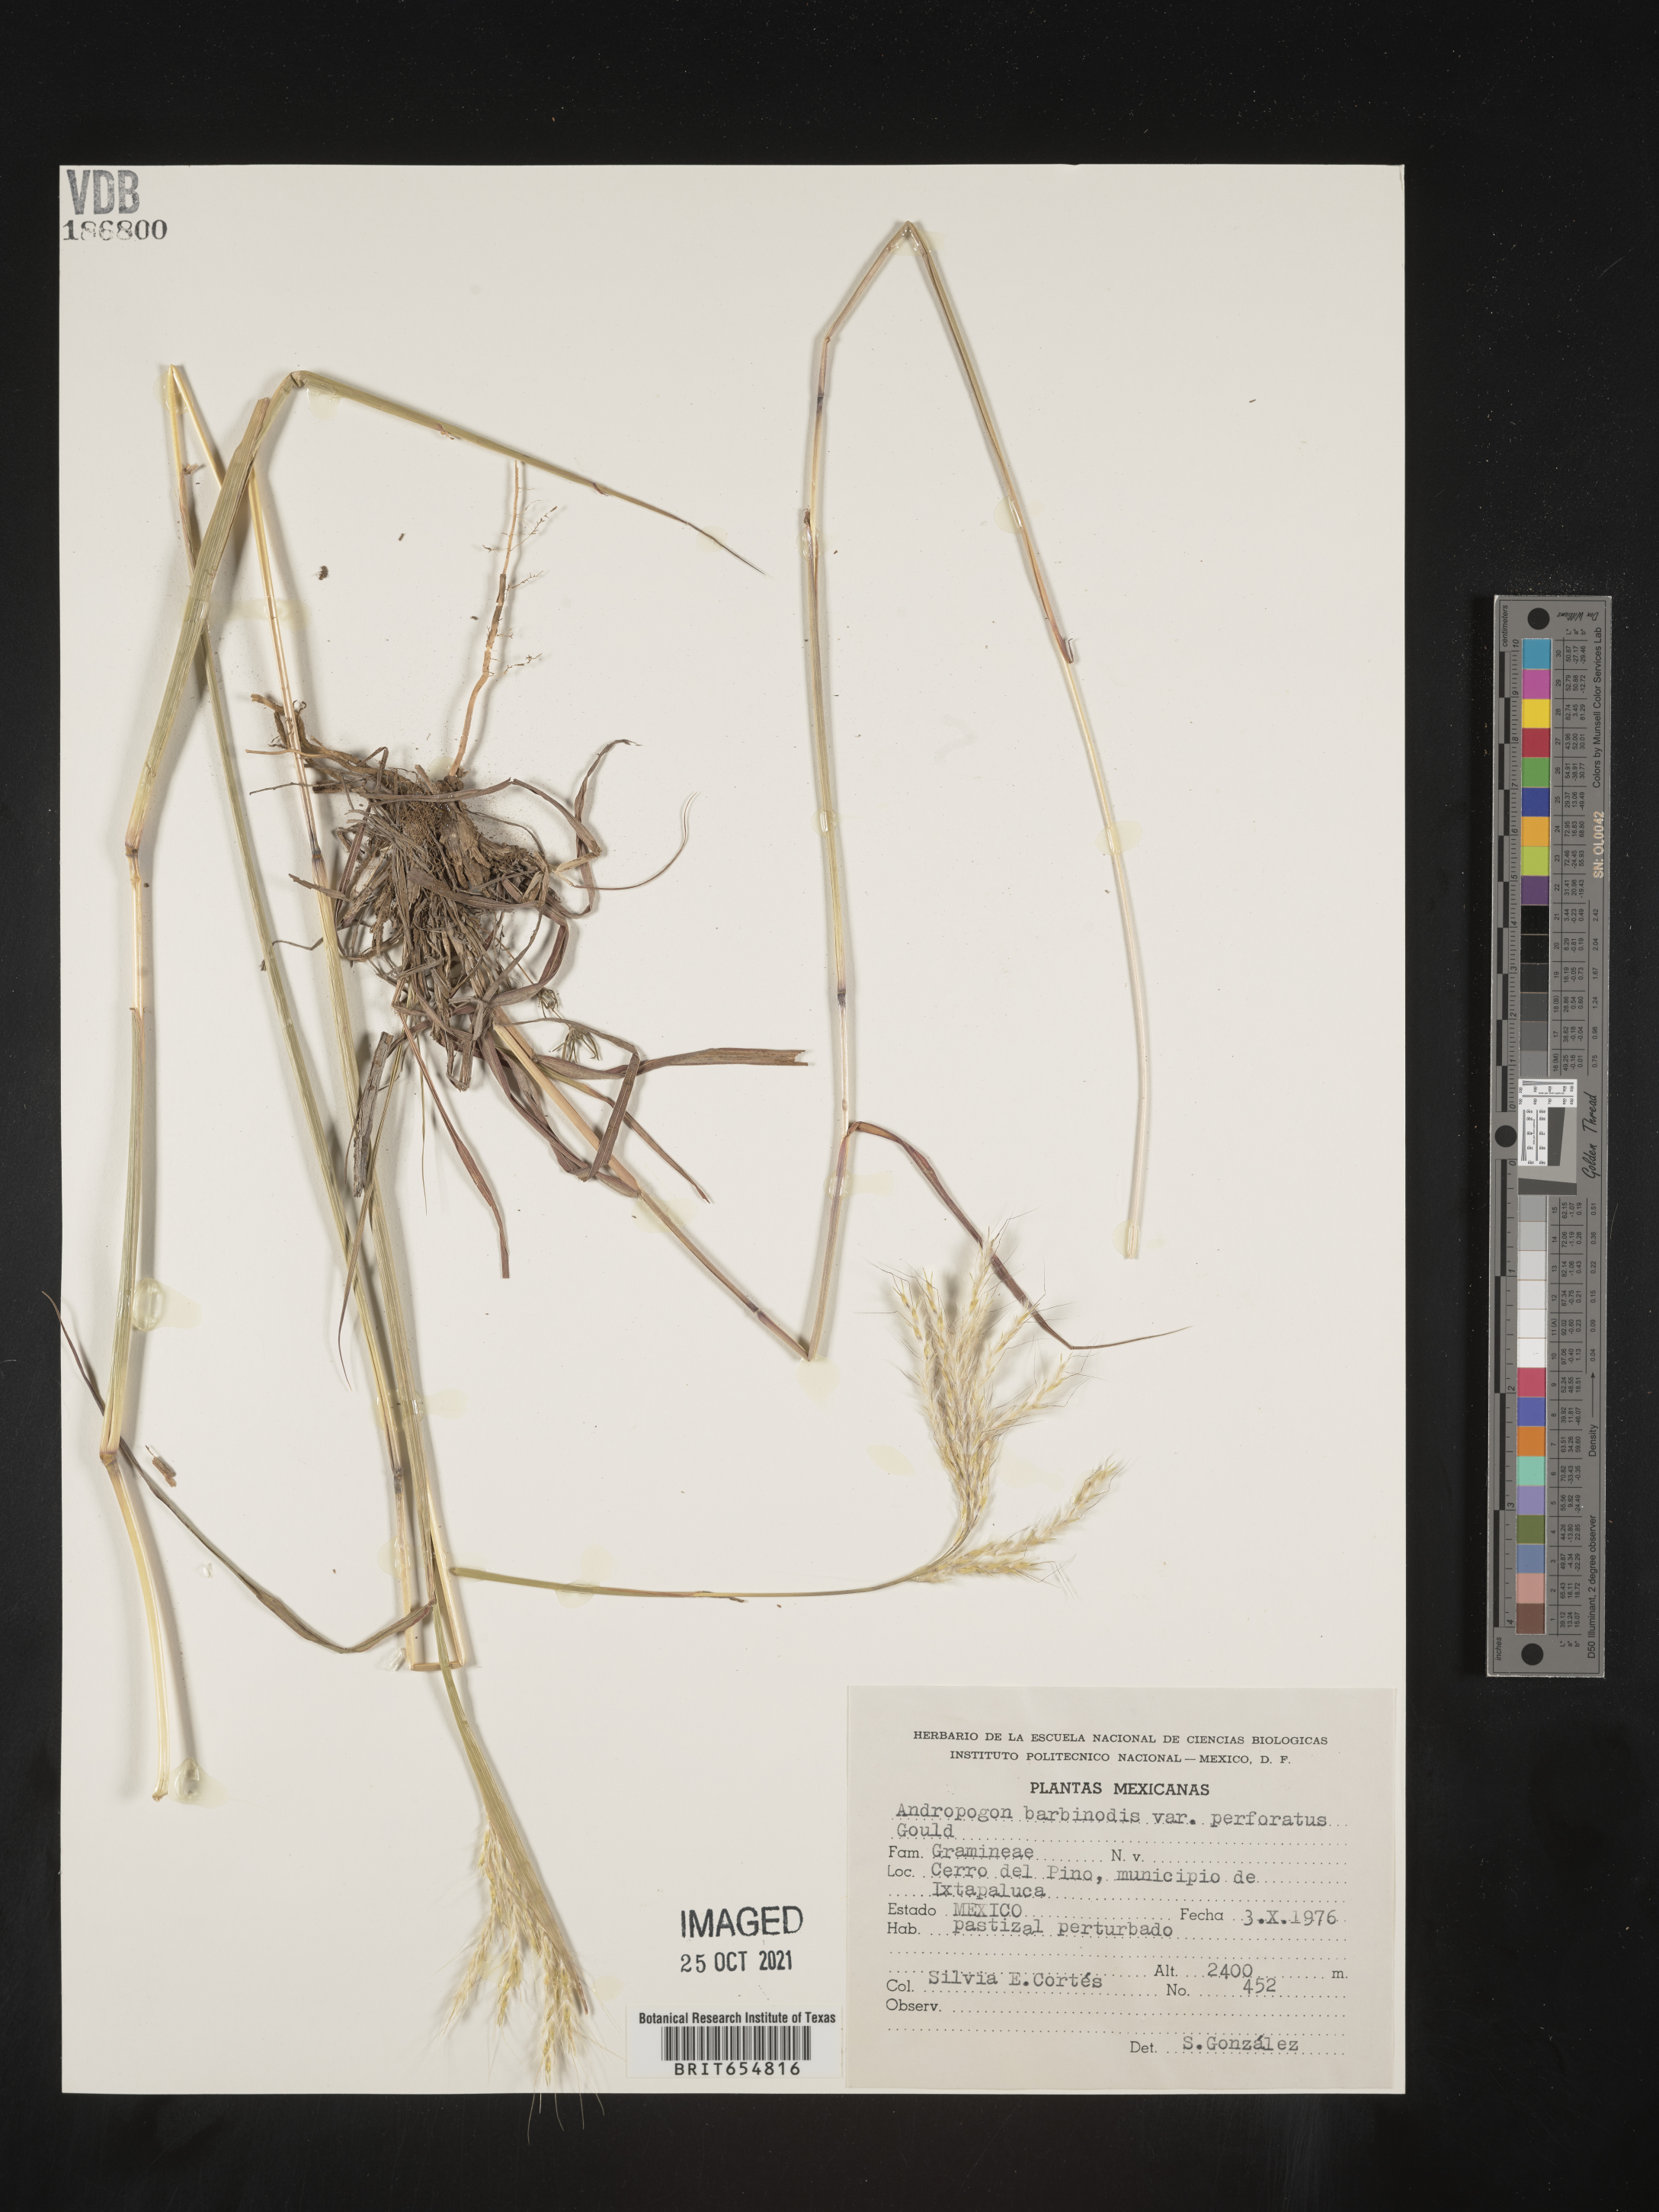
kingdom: Plantae
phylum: Tracheophyta
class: Liliopsida
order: Poales
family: Poaceae
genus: Andropogon
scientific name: Andropogon
